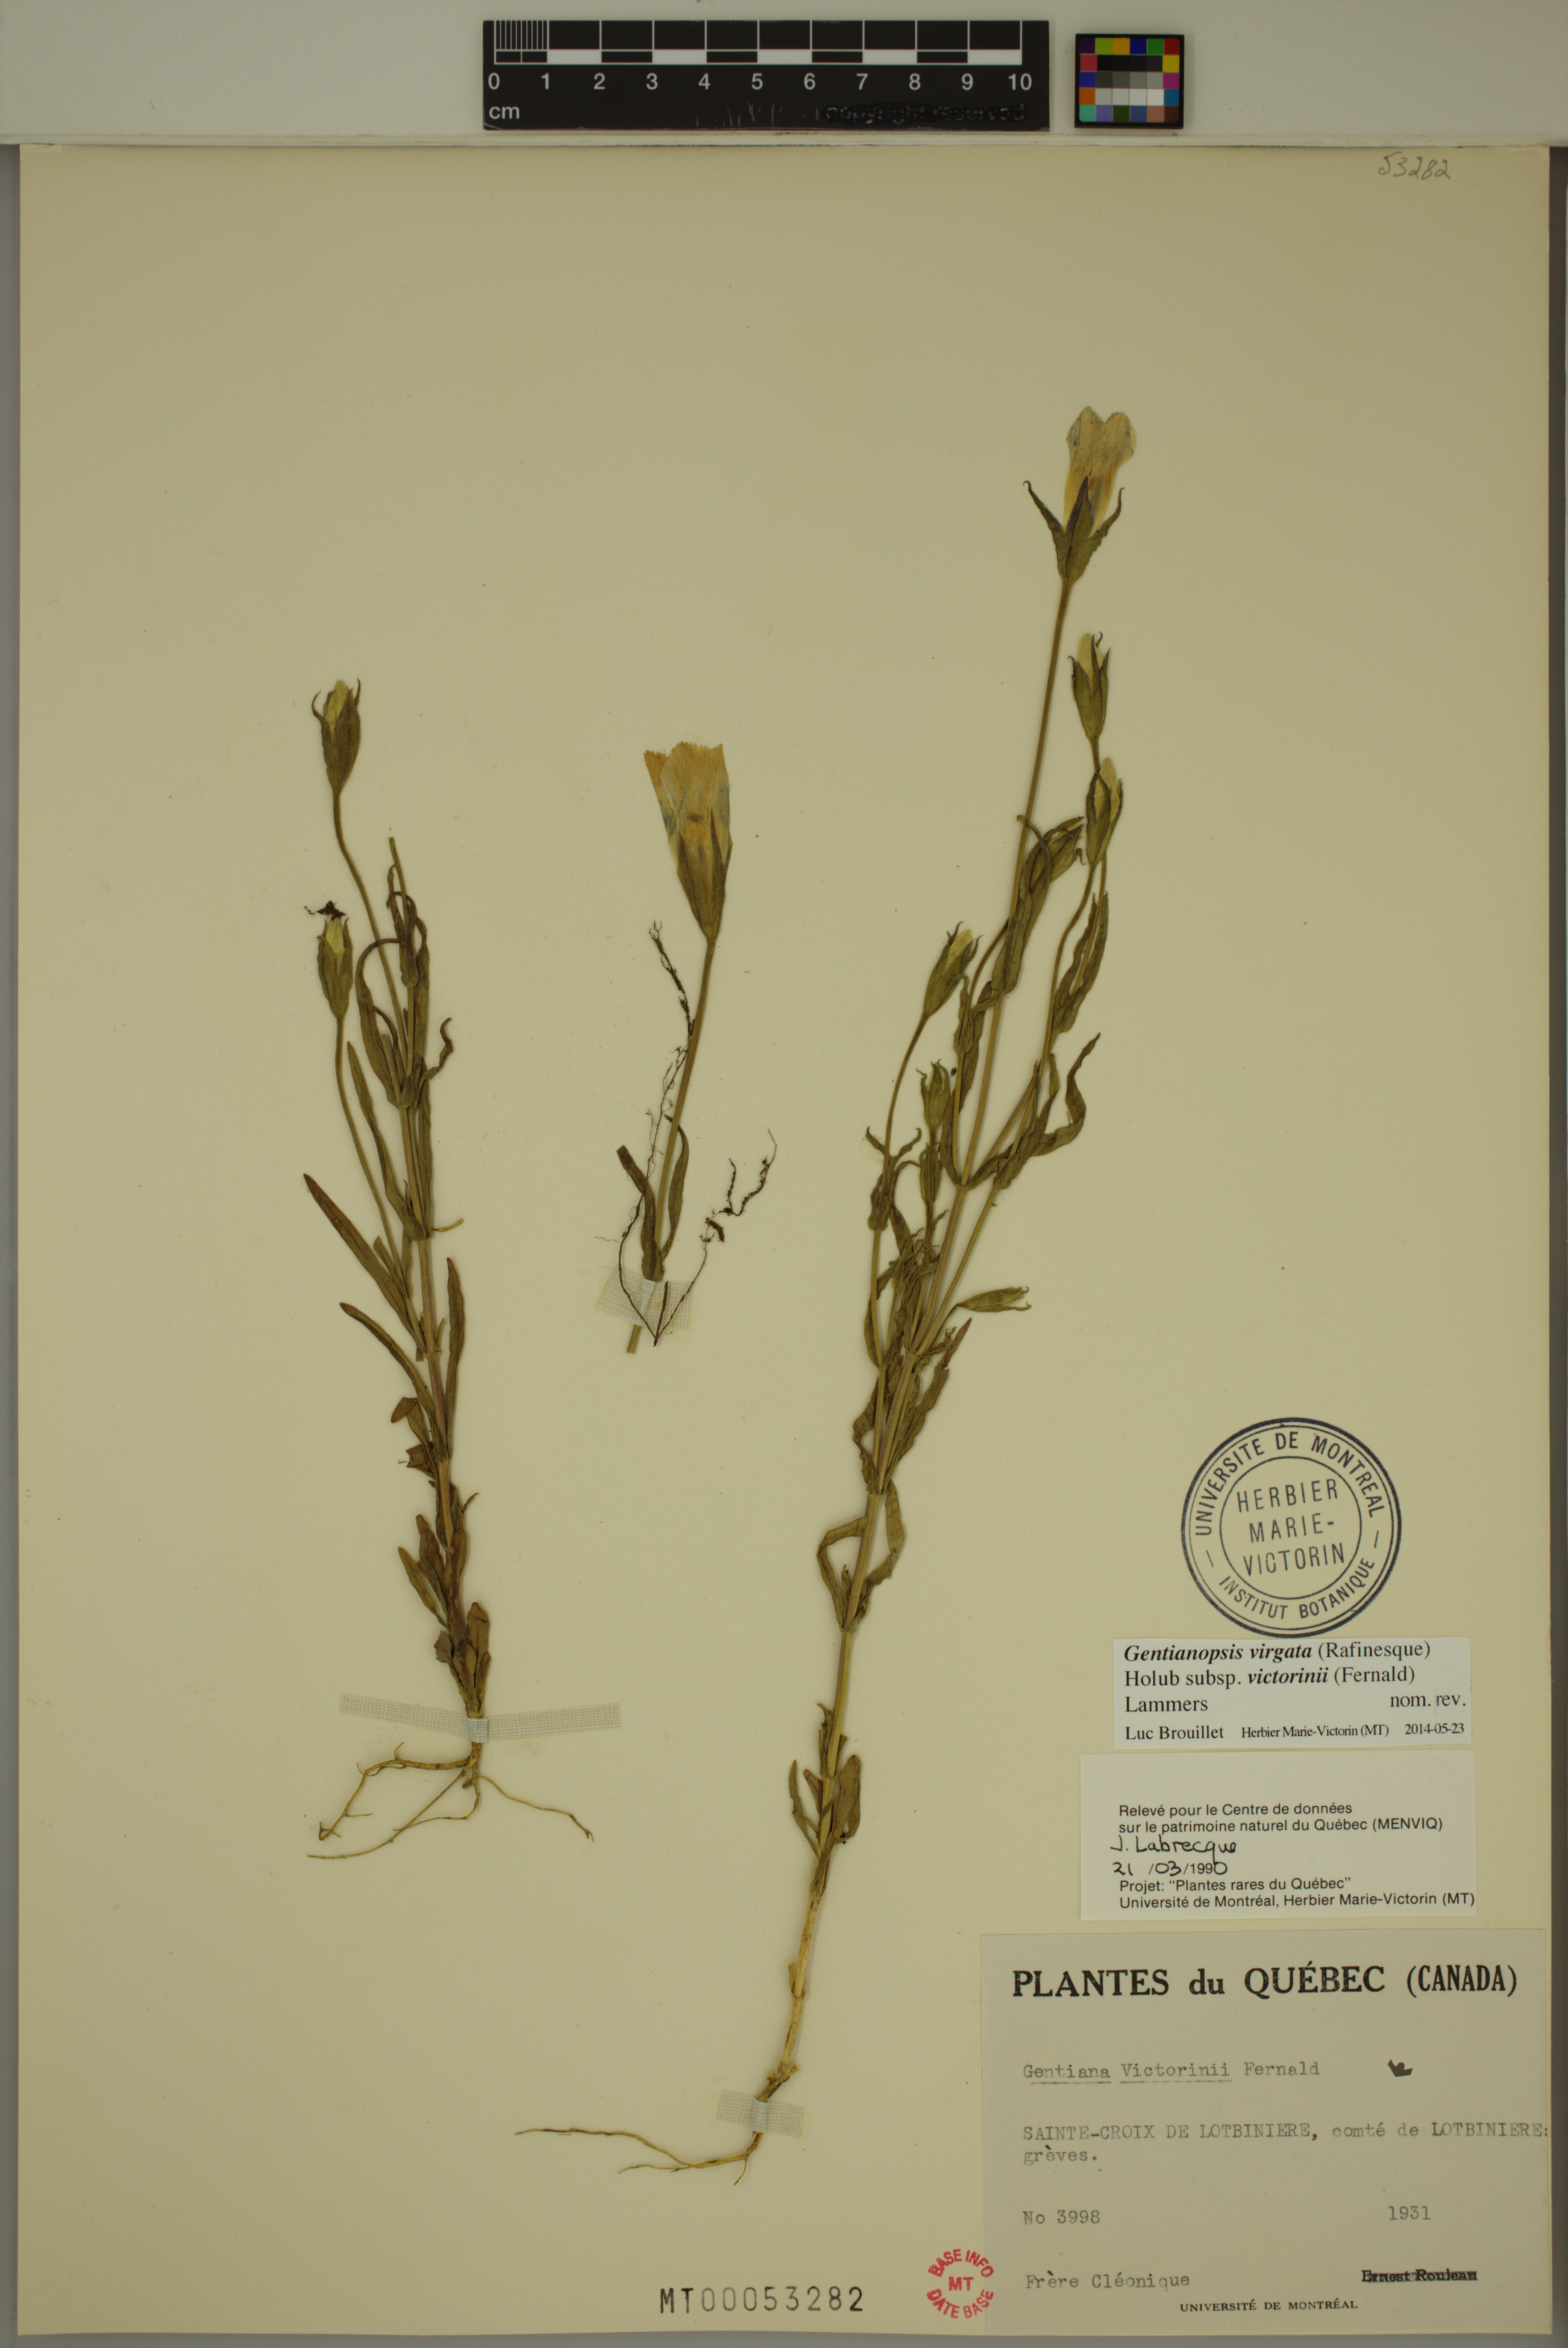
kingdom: Plantae
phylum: Tracheophyta
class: Magnoliopsida
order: Gentianales
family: Gentianaceae
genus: Gentianopsis
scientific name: Gentianopsis victorinii
